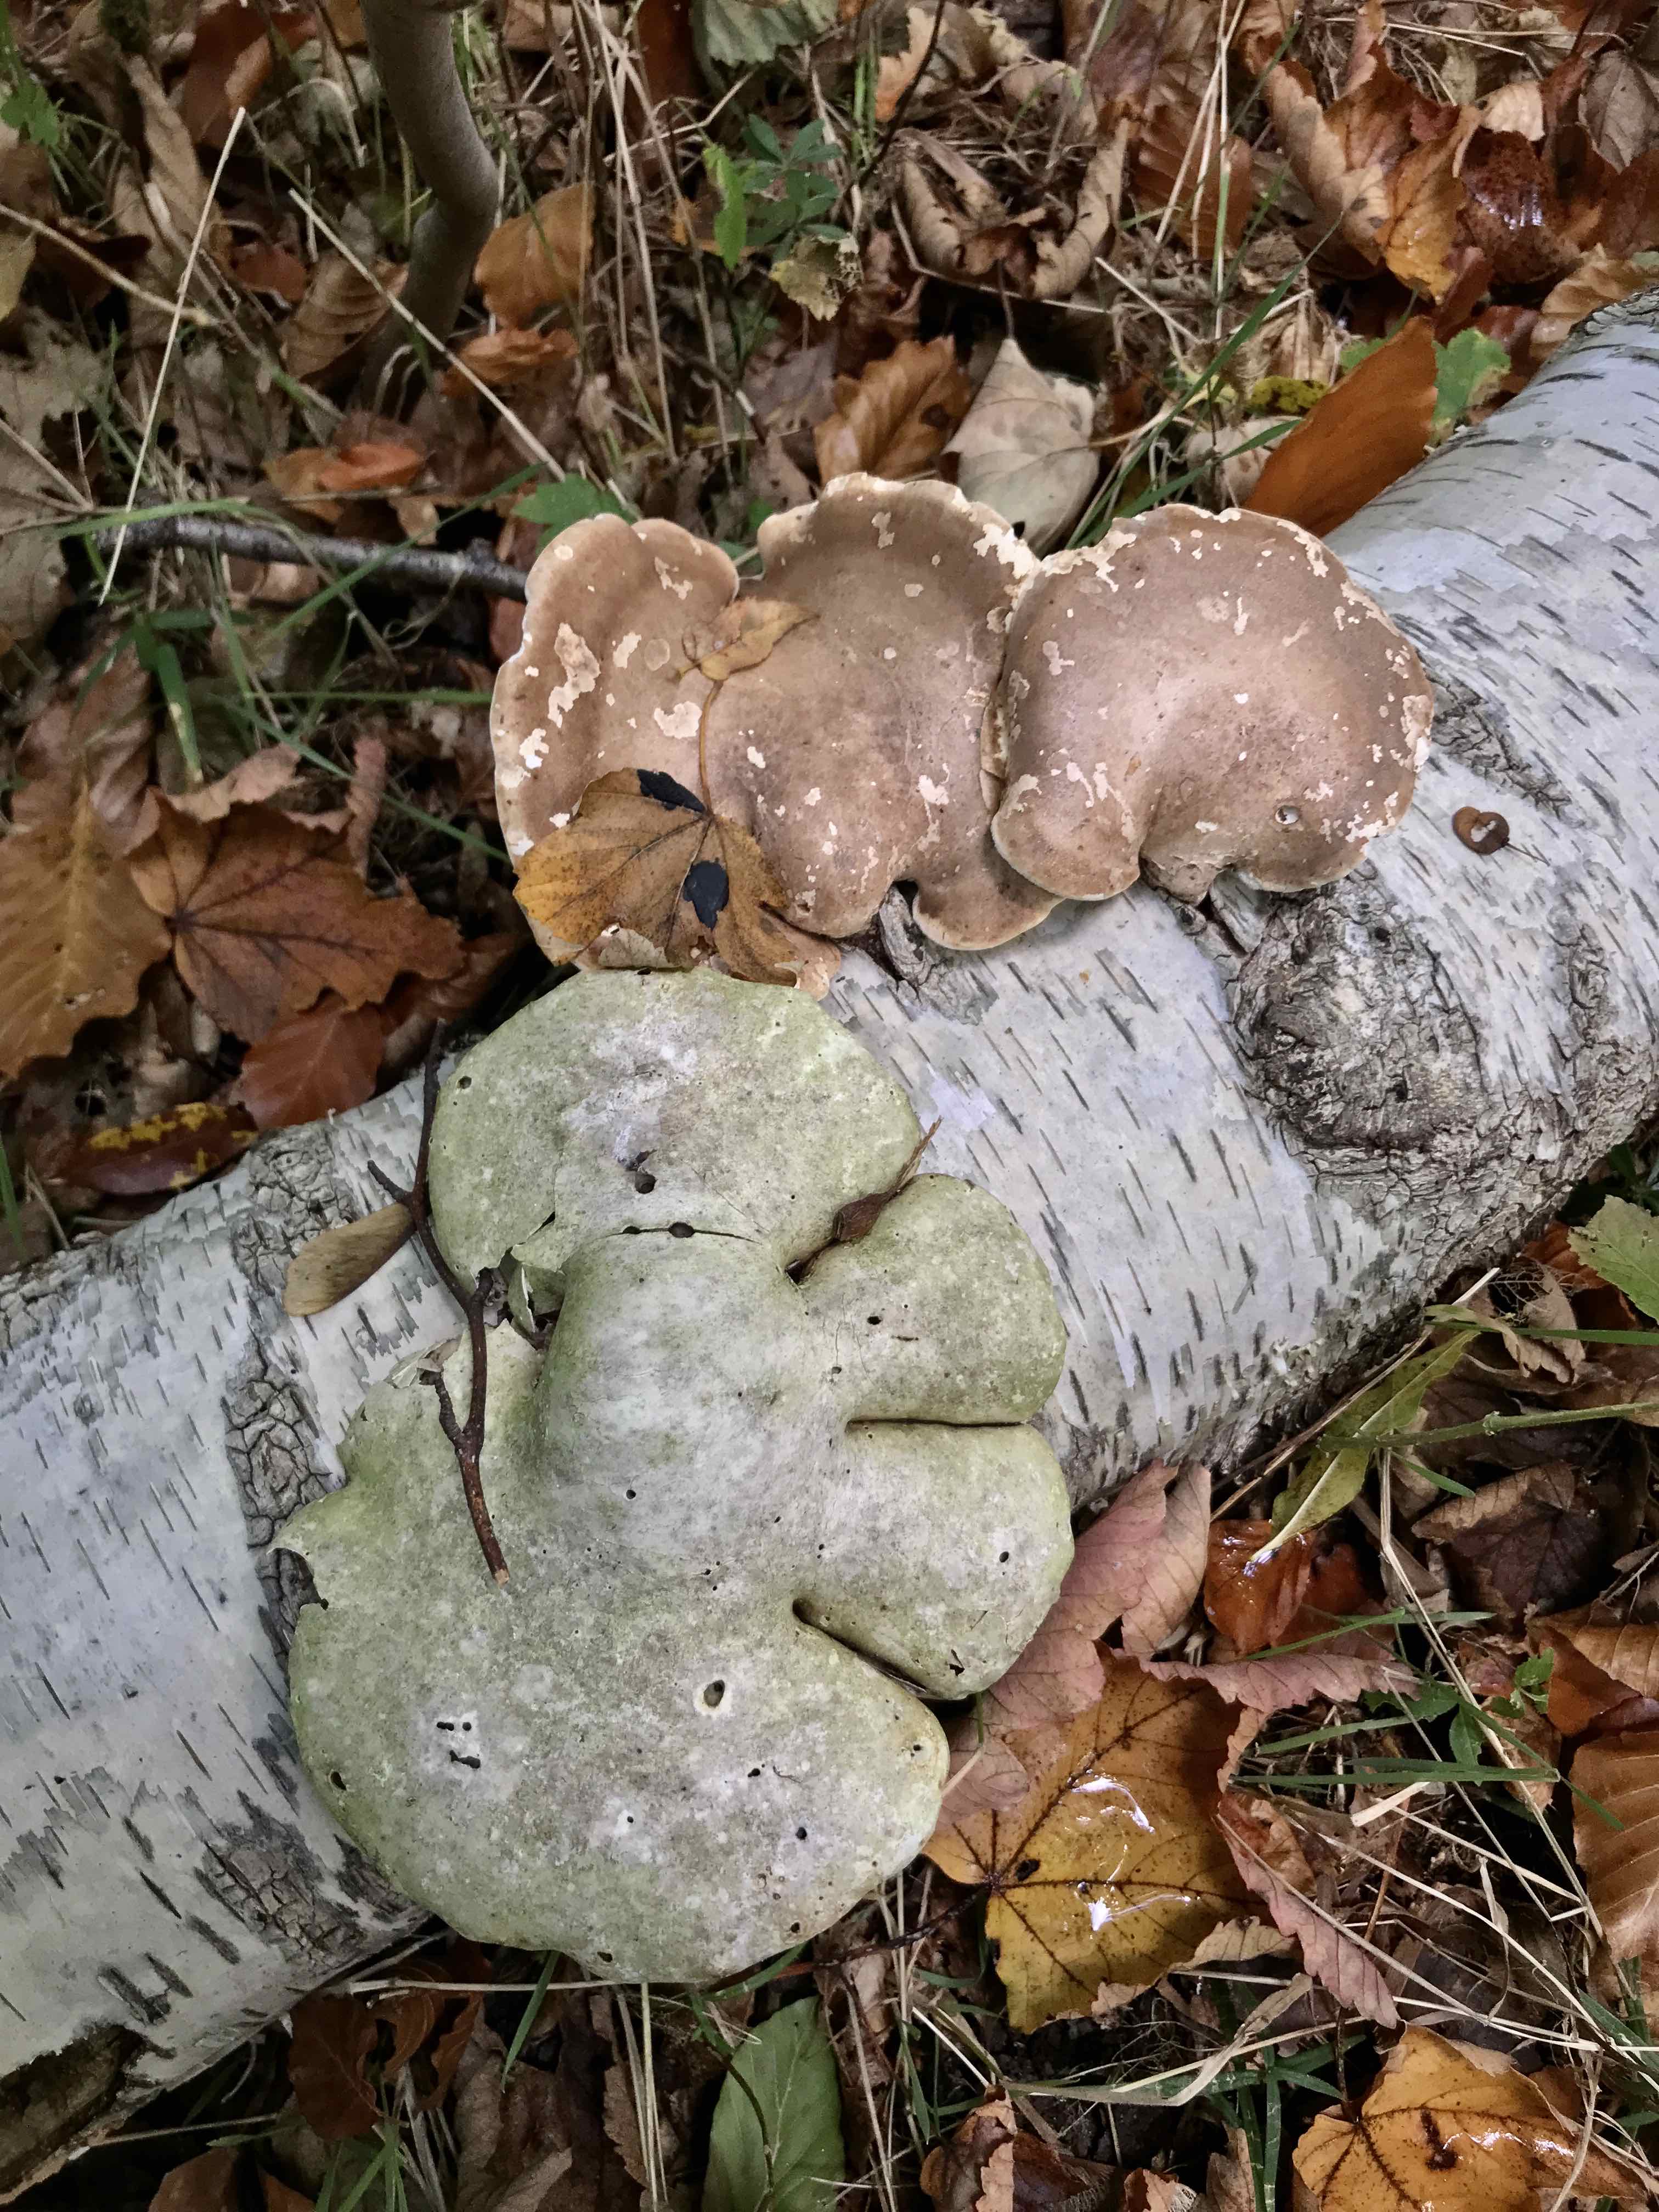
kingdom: Fungi
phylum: Basidiomycota
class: Agaricomycetes
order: Polyporales
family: Fomitopsidaceae
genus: Fomitopsis
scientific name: Fomitopsis betulina
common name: birkeporesvamp
